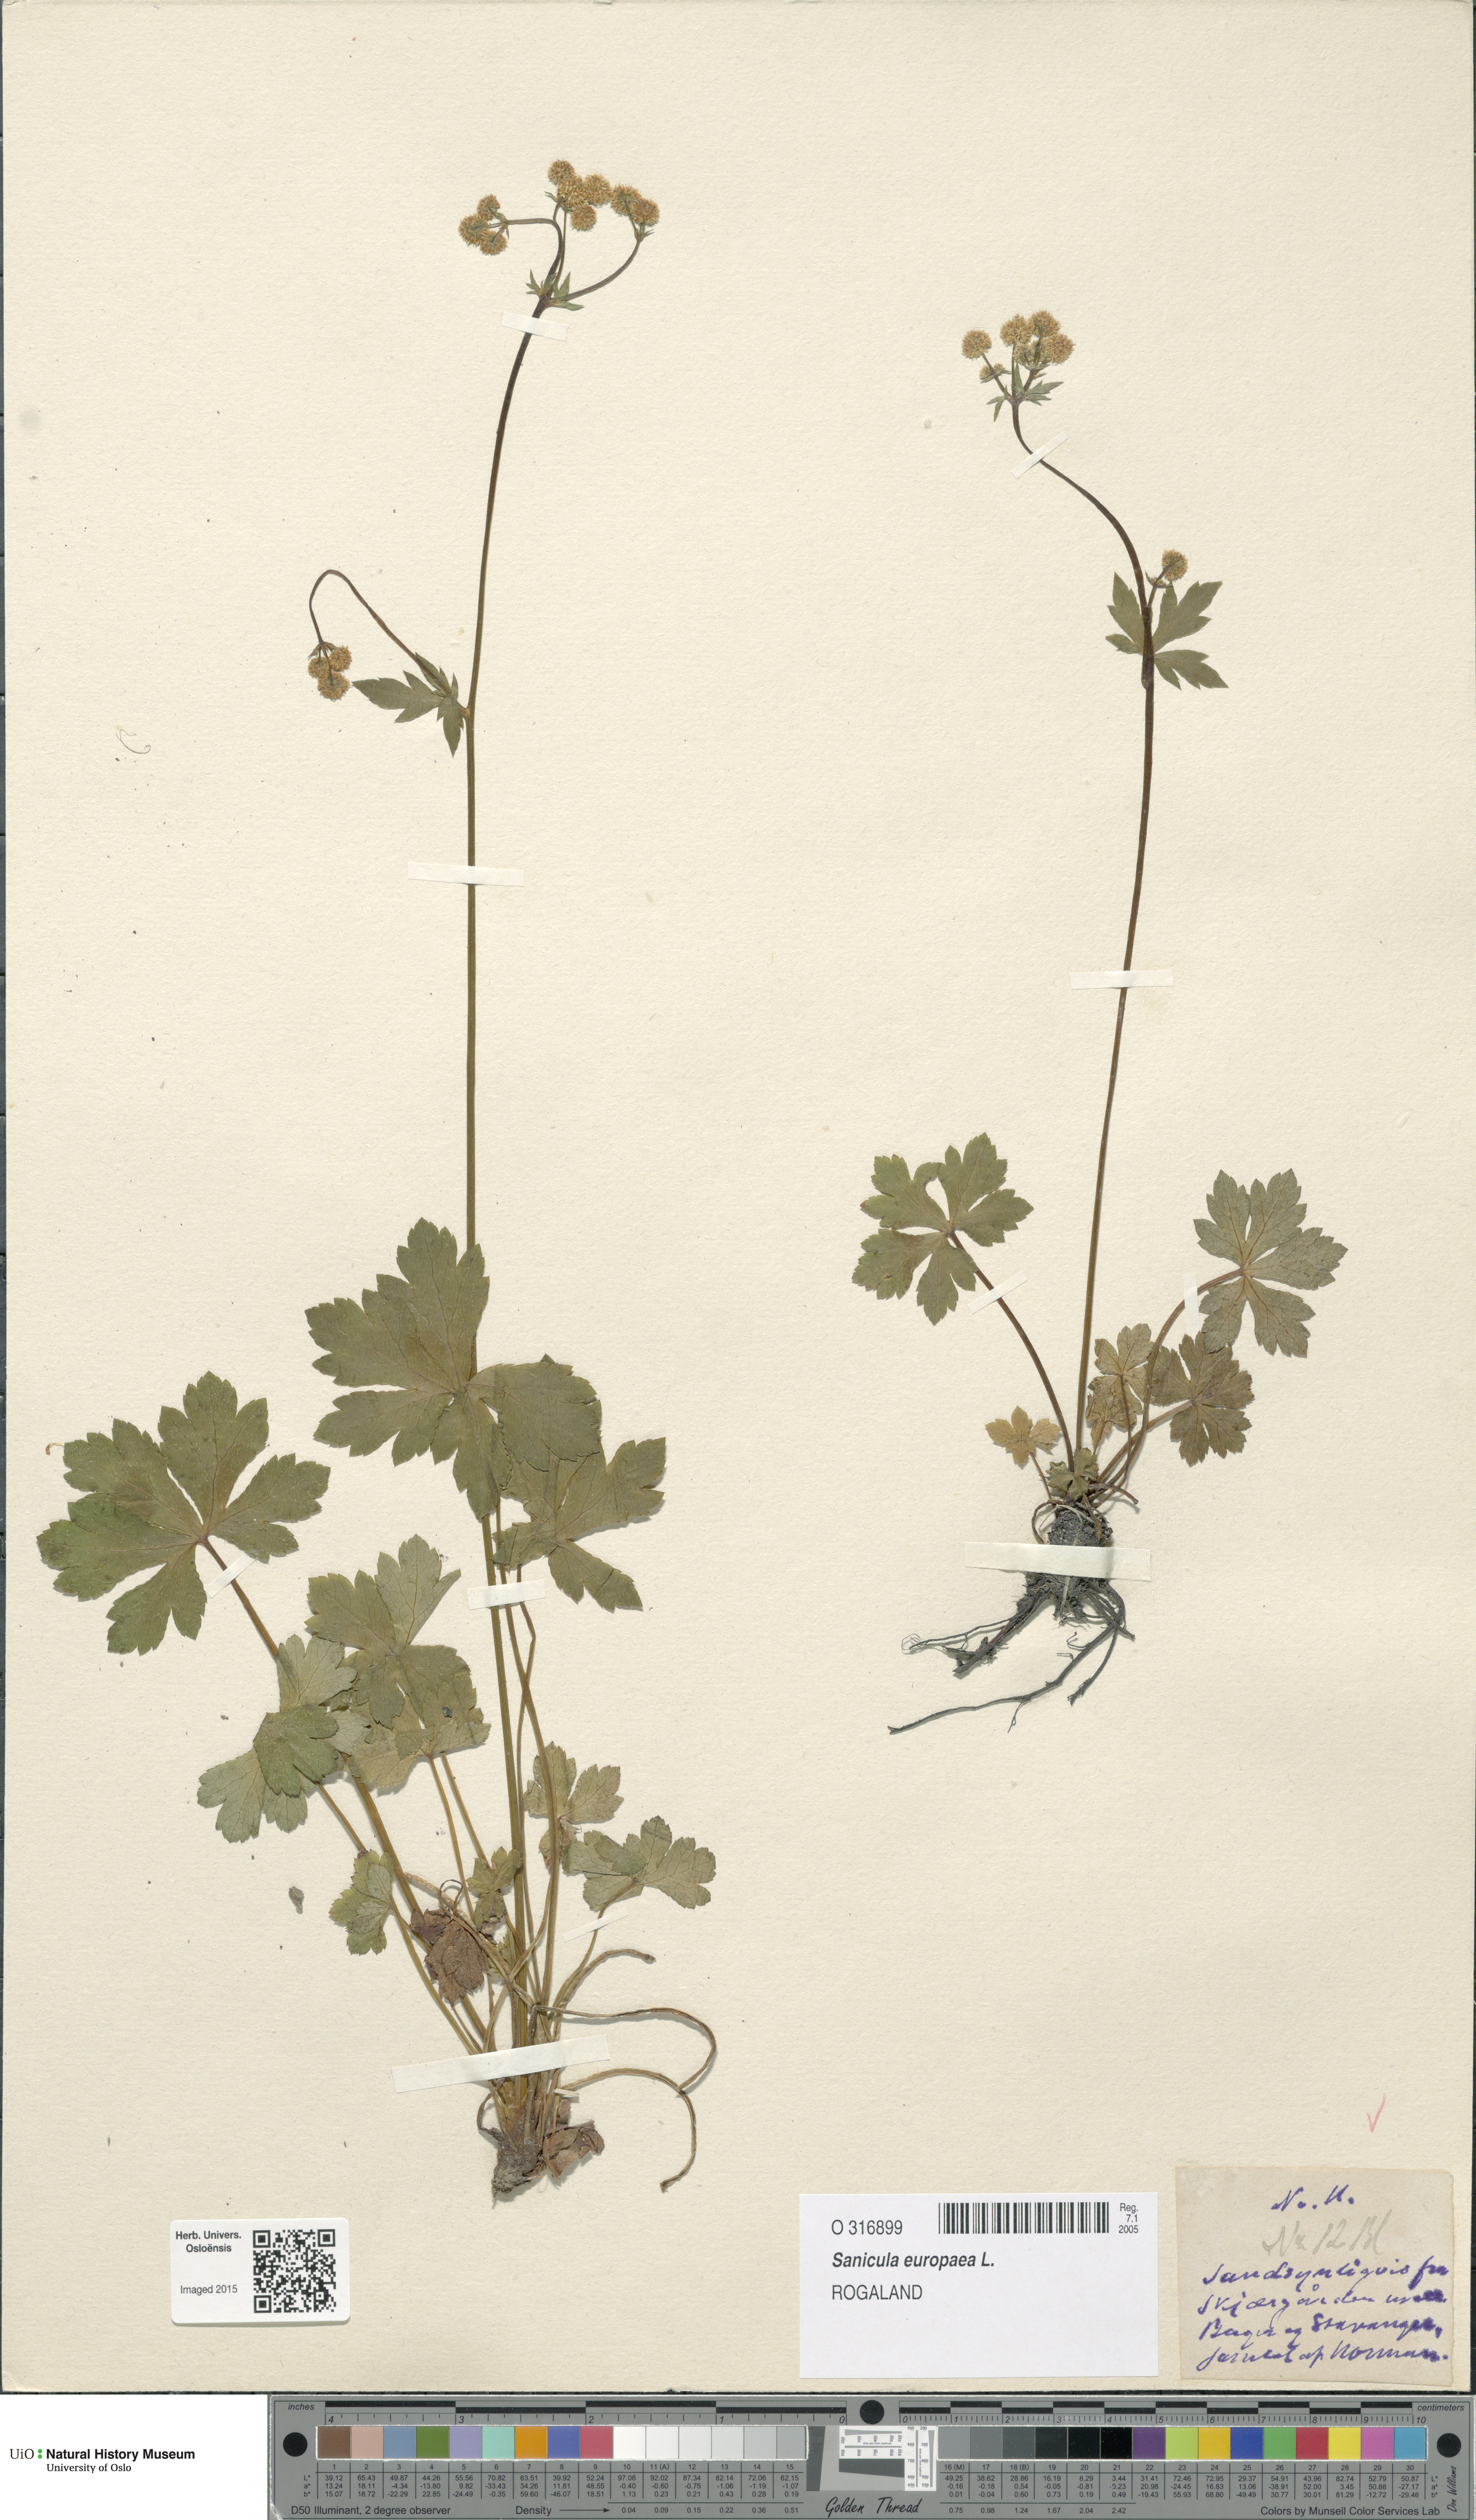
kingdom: Plantae
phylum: Tracheophyta
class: Magnoliopsida
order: Apiales
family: Apiaceae
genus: Sanicula
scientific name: Sanicula europaea
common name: Sanicle
